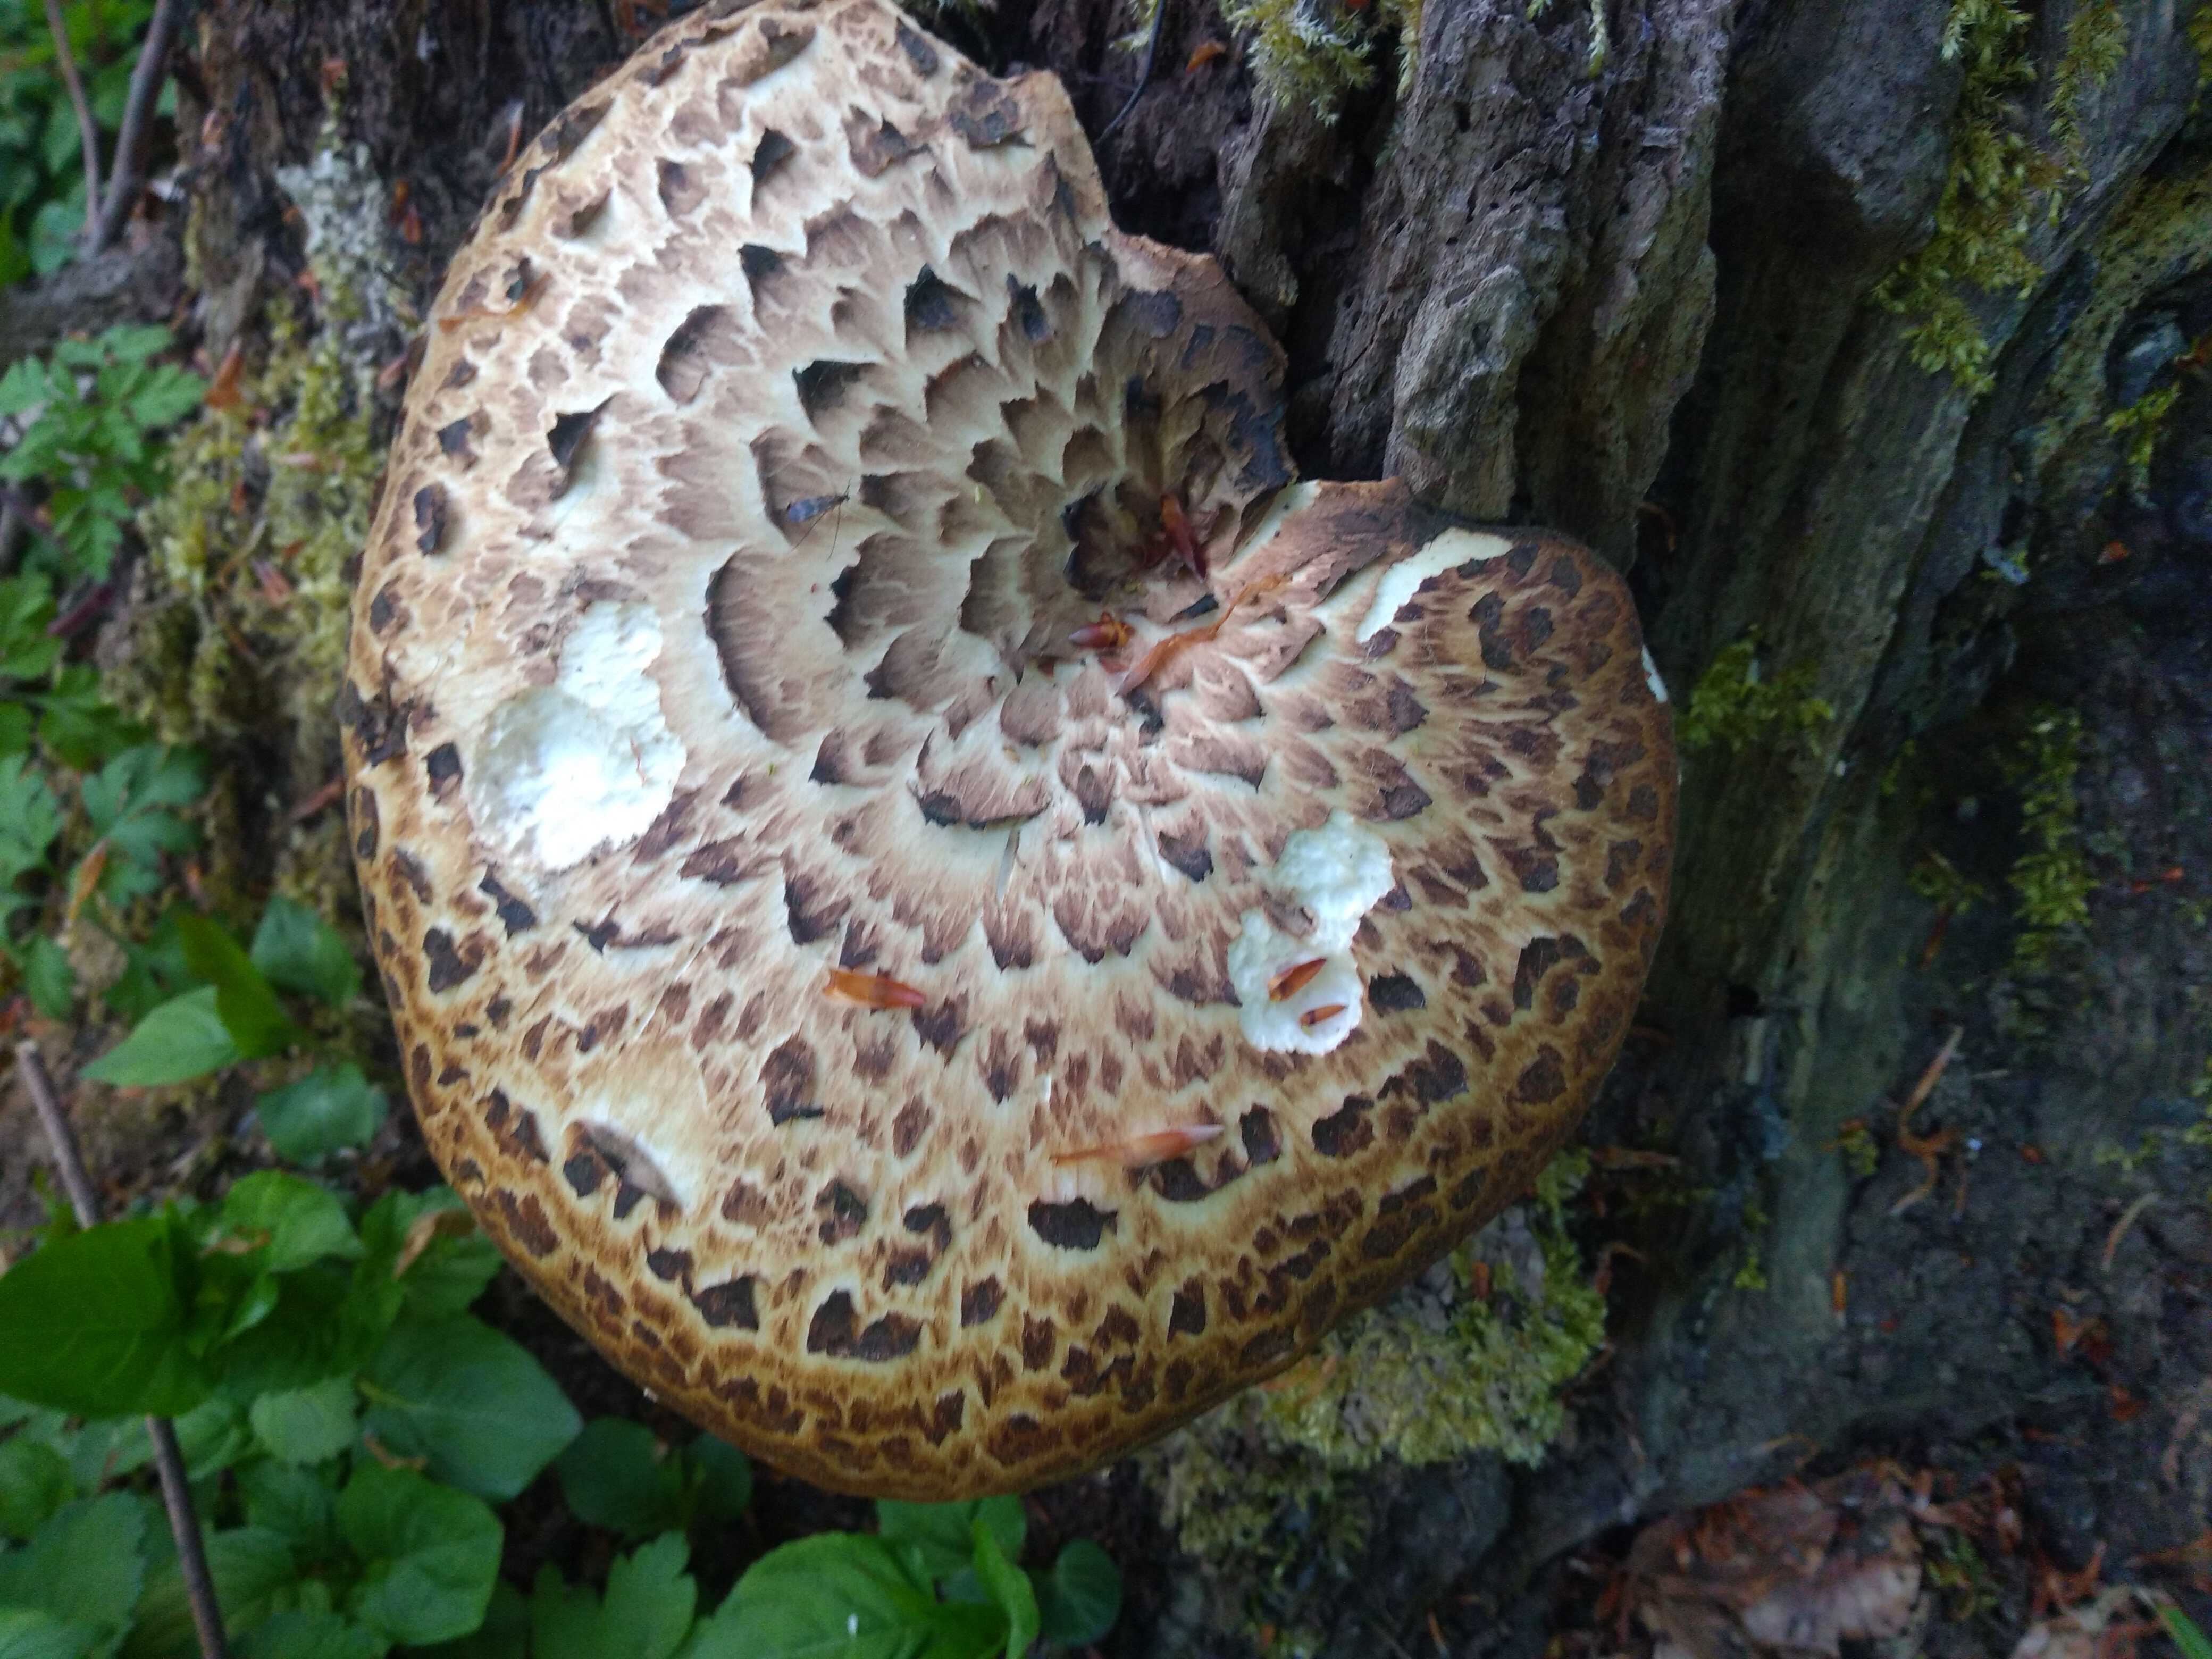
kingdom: Fungi
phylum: Basidiomycota
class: Agaricomycetes
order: Polyporales
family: Polyporaceae
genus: Cerioporus
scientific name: Cerioporus squamosus
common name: skællet stilkporesvamp
